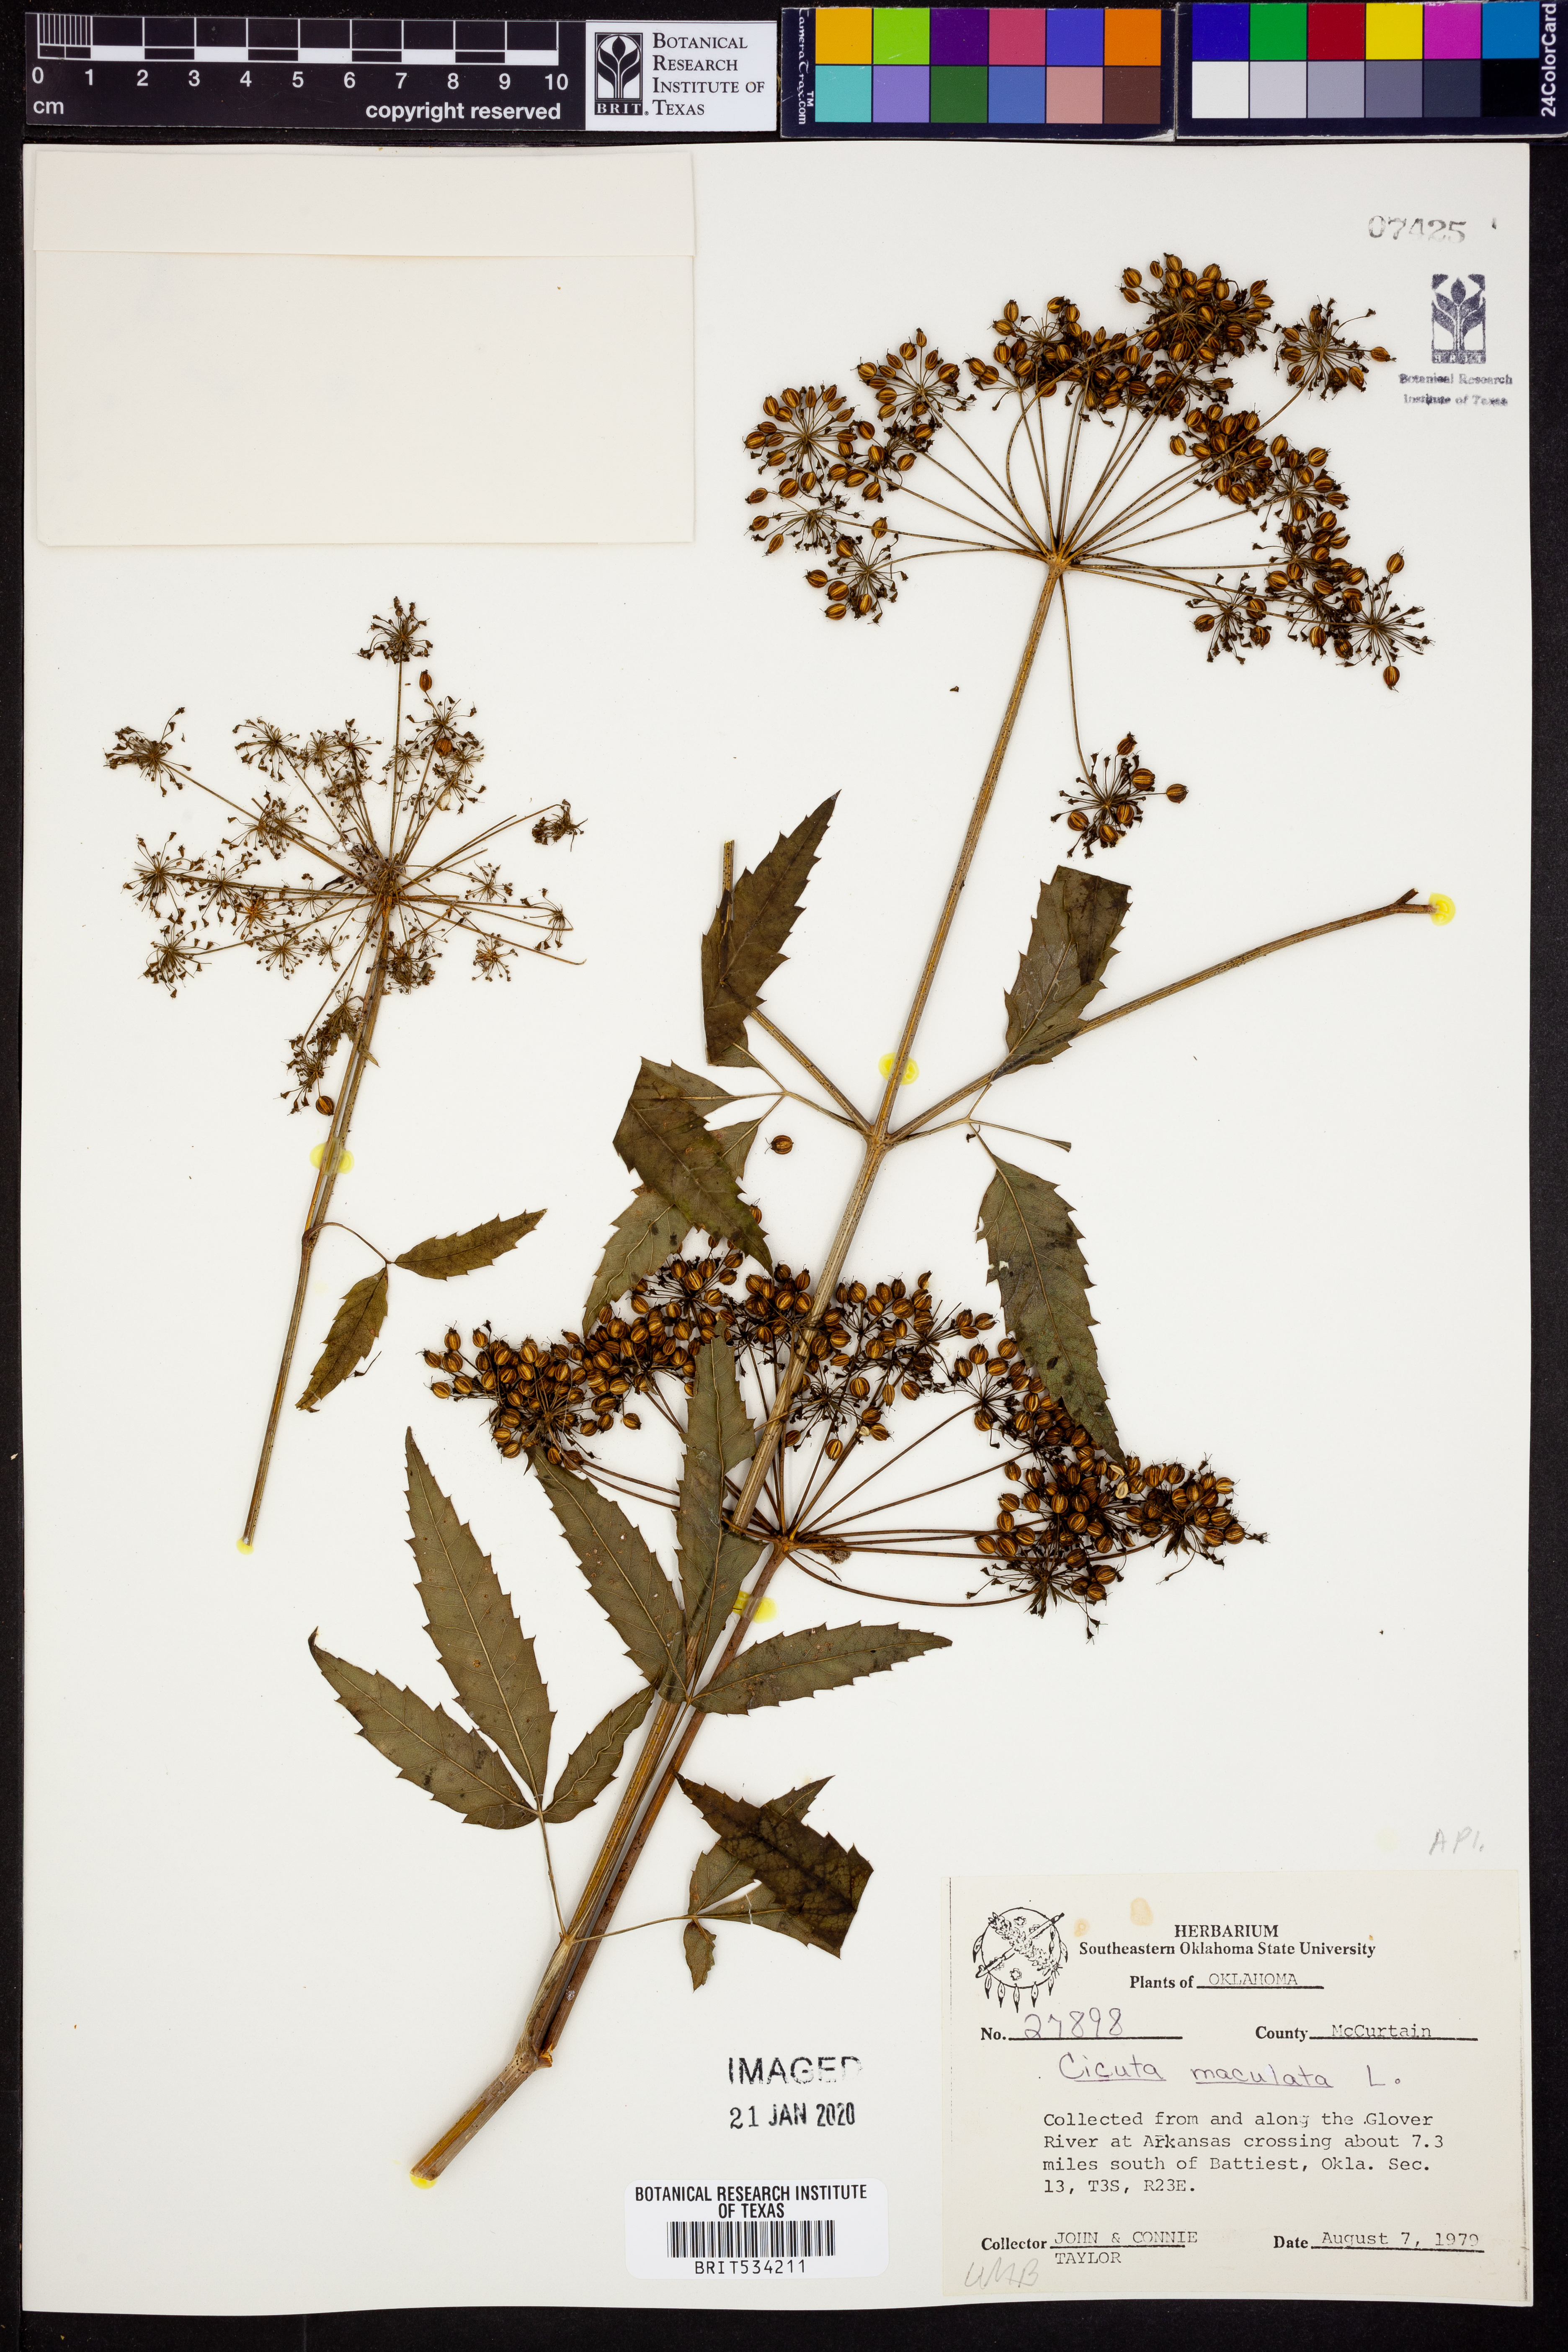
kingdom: Plantae
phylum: Tracheophyta
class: Magnoliopsida
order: Apiales
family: Apiaceae
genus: Cicuta
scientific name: Cicuta maculata
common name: Spotted cowbane
